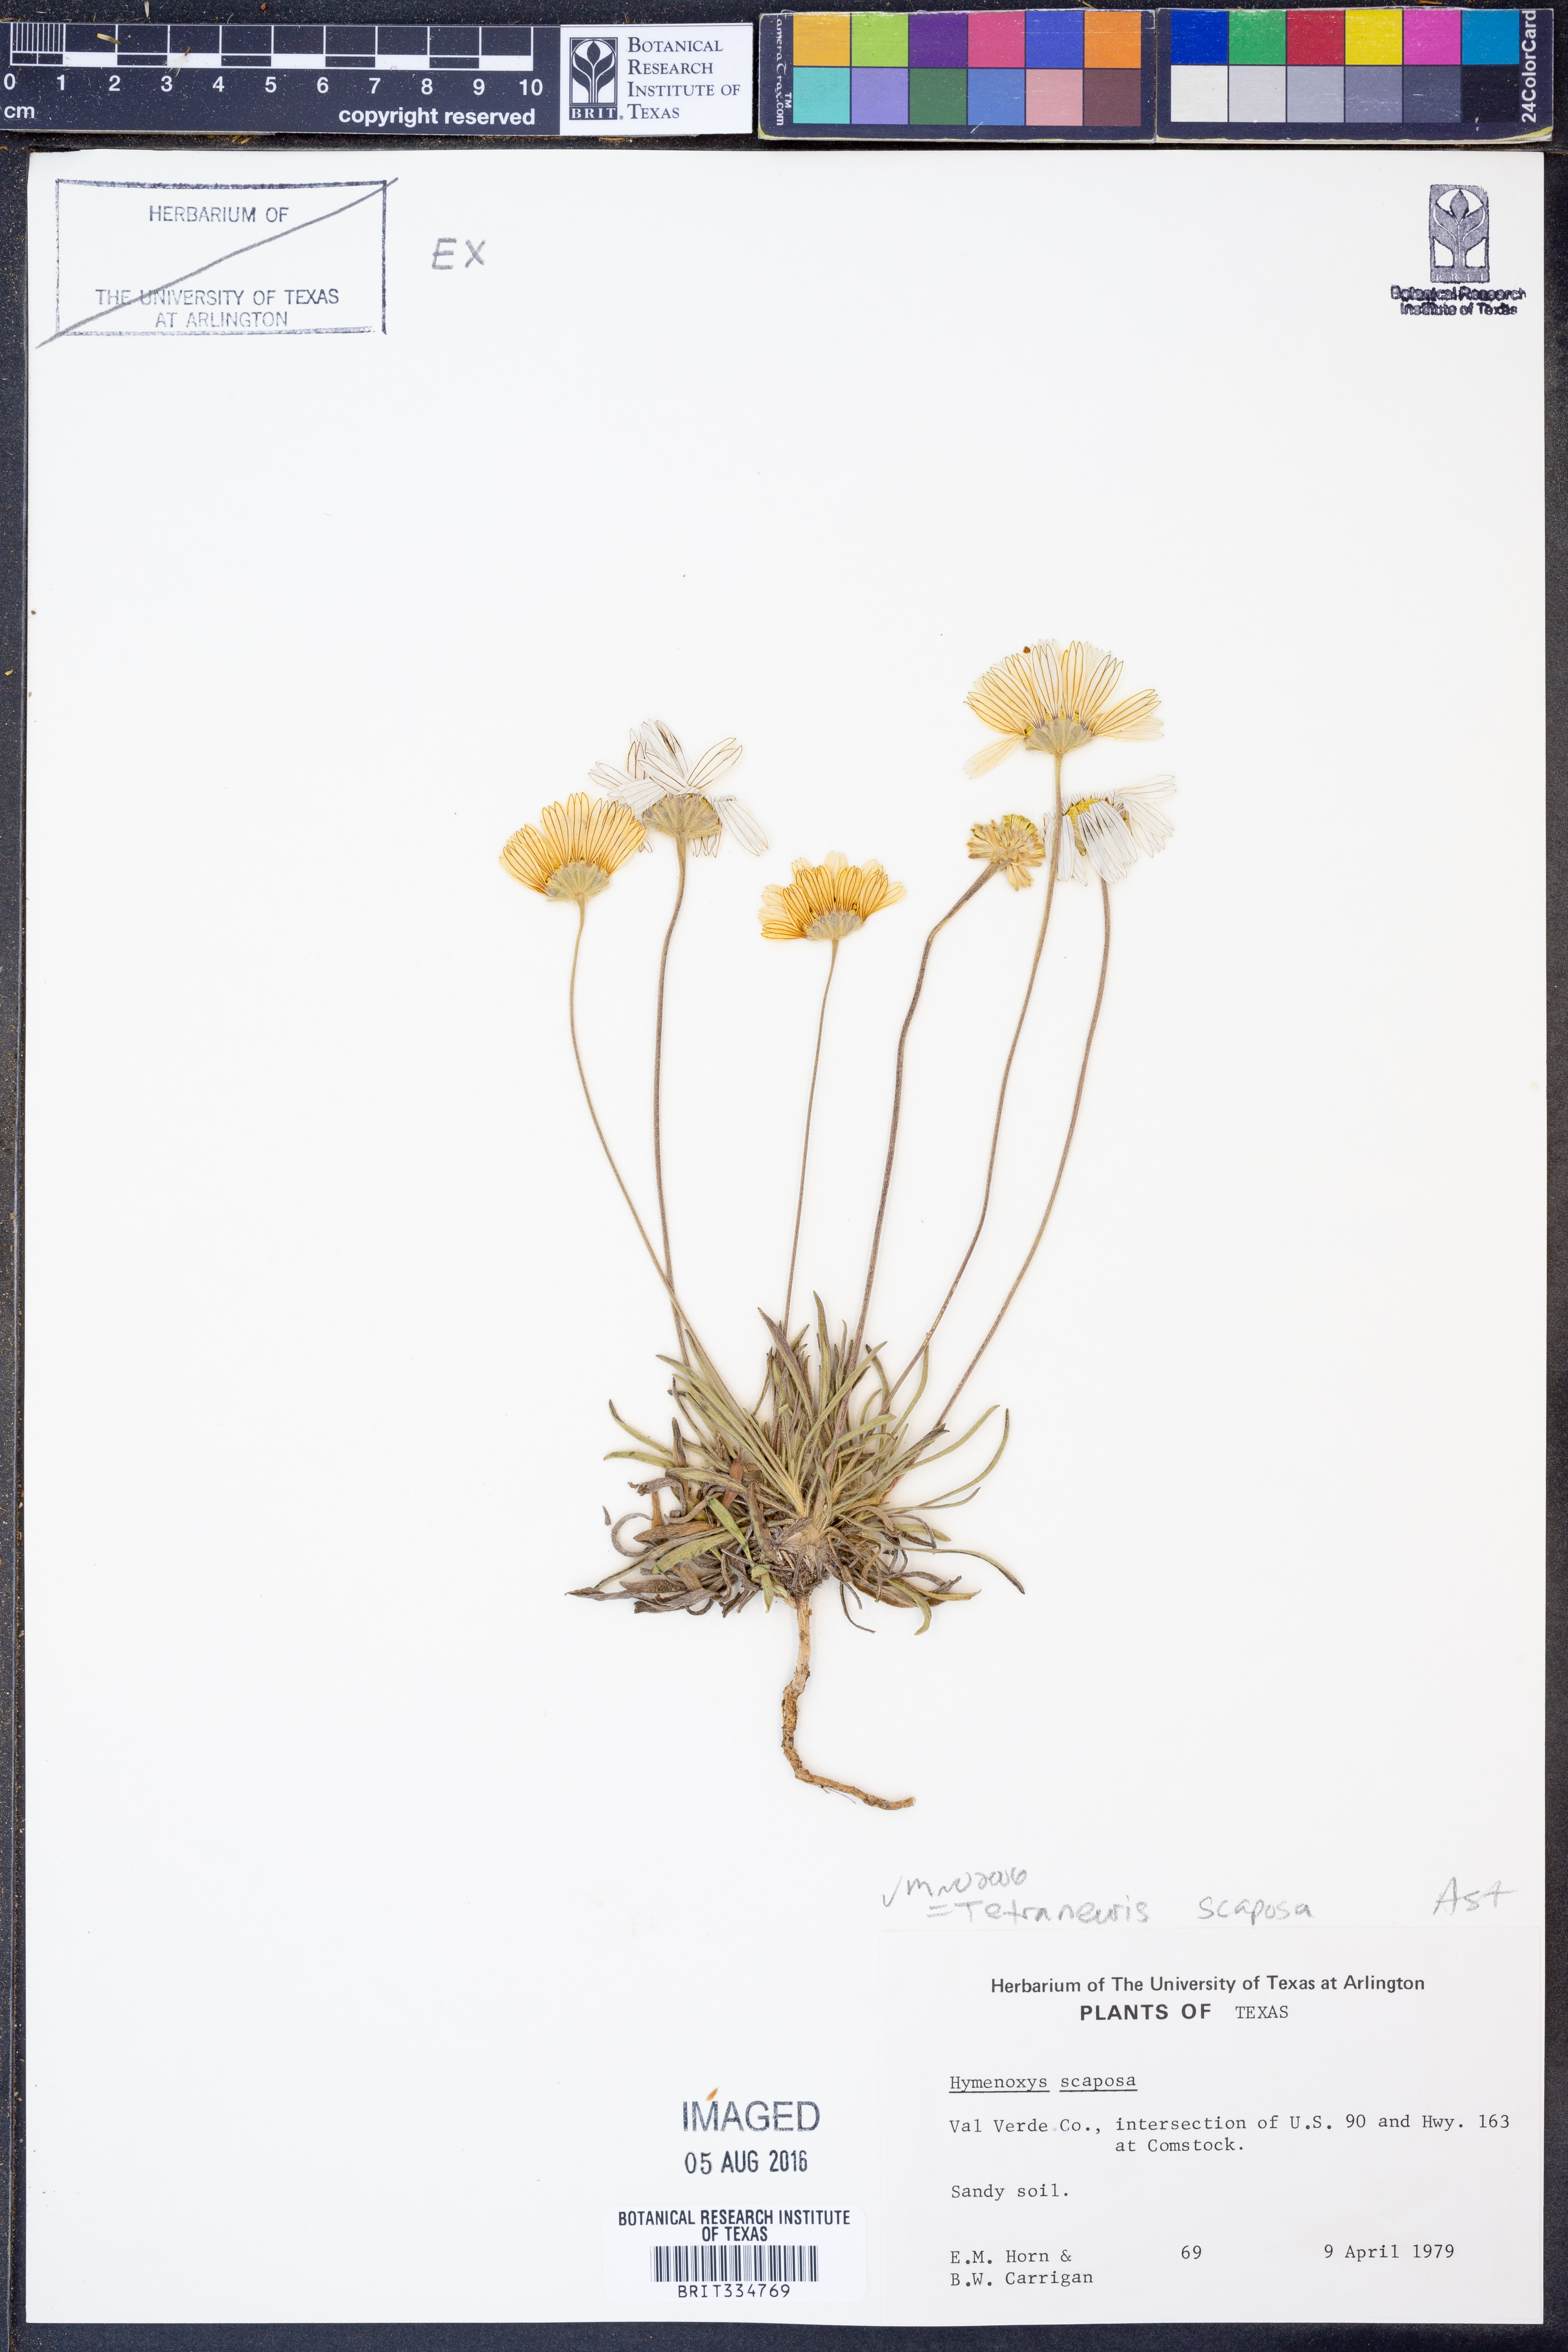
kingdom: Plantae
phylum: Tracheophyta
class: Magnoliopsida
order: Asterales
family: Asteraceae
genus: Tetraneuris
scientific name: Tetraneuris scaposa
